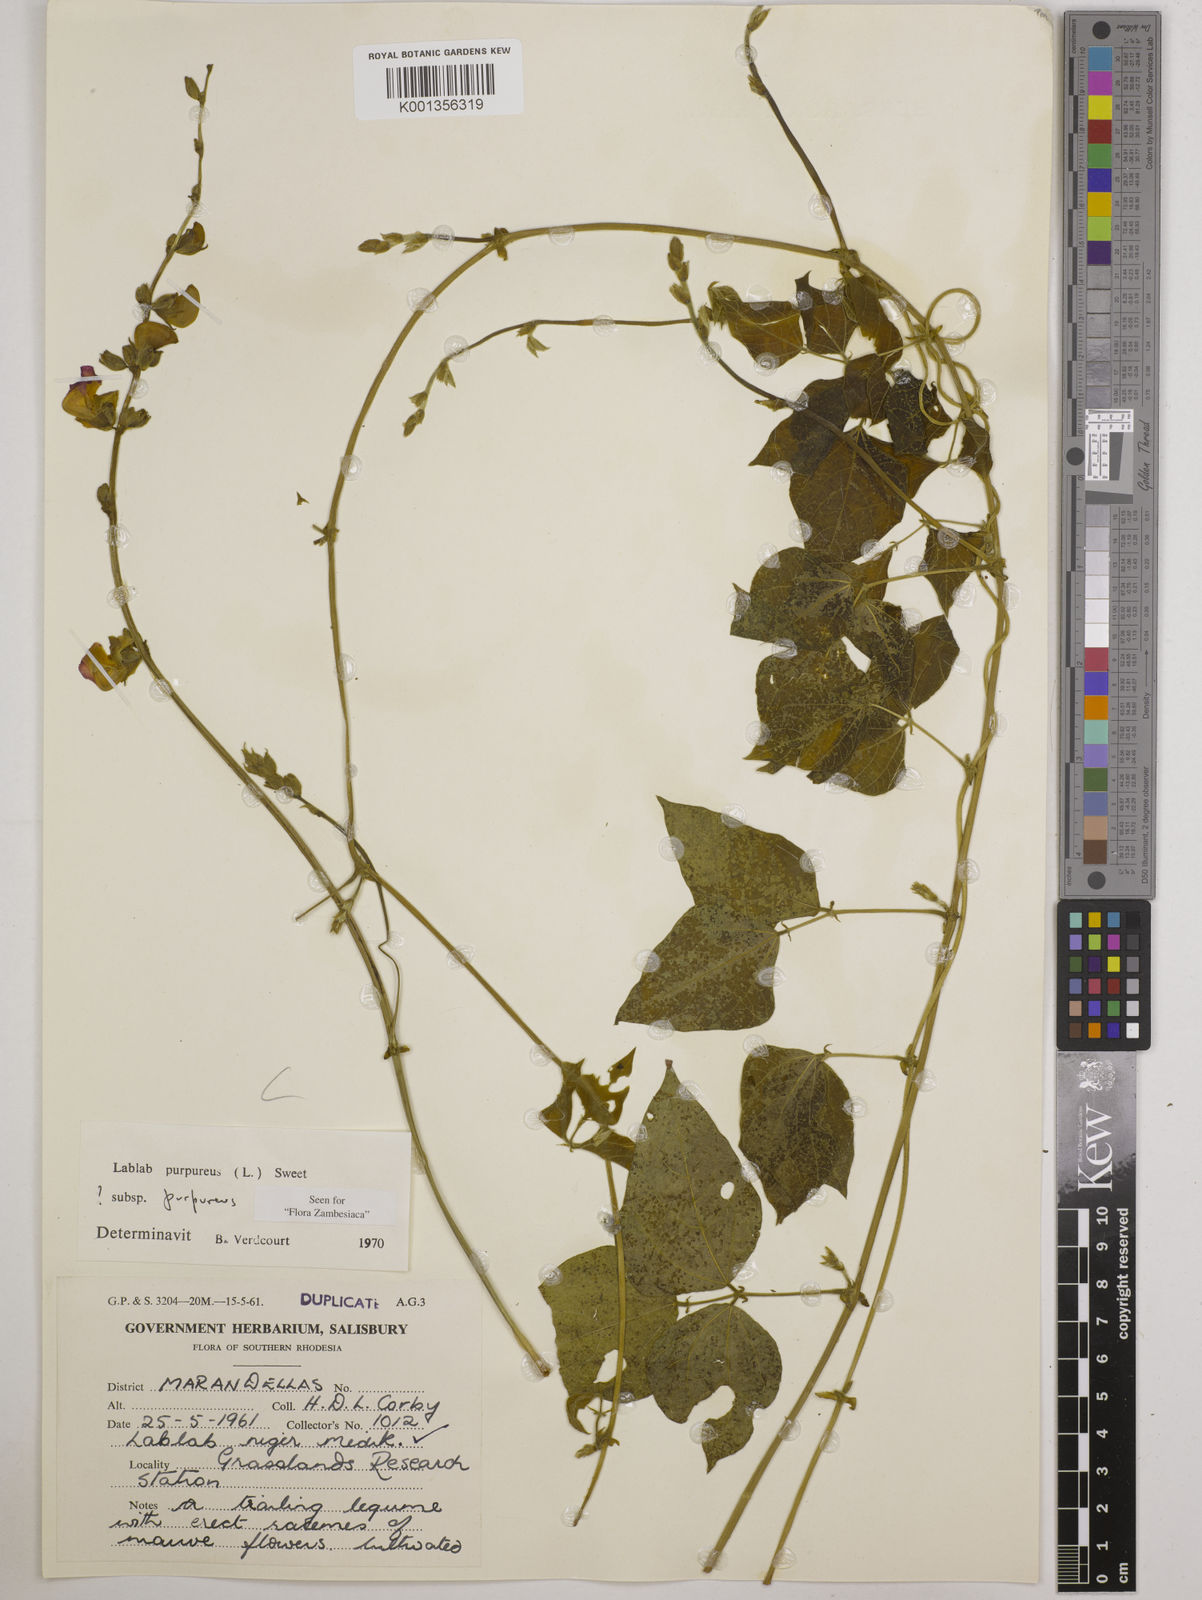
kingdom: Plantae
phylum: Tracheophyta
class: Magnoliopsida
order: Fabales
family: Fabaceae
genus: Lablab
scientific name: Lablab purpureus
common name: Lablab-bean
